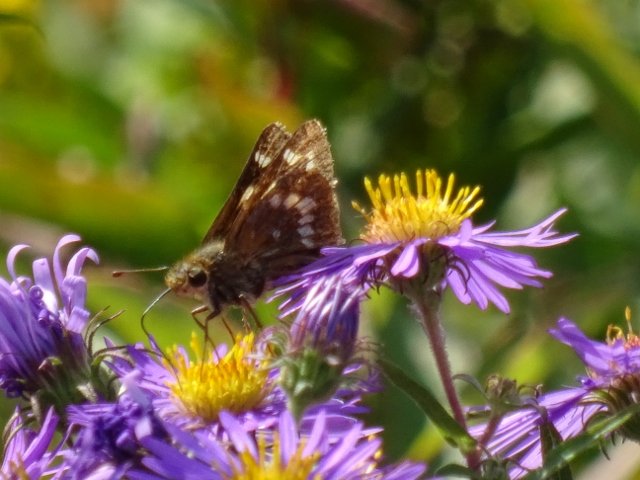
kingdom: Animalia
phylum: Arthropoda
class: Insecta
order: Lepidoptera
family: Hesperiidae
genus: Hesperia
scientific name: Hesperia leonardus
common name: Leonard's Skipper
